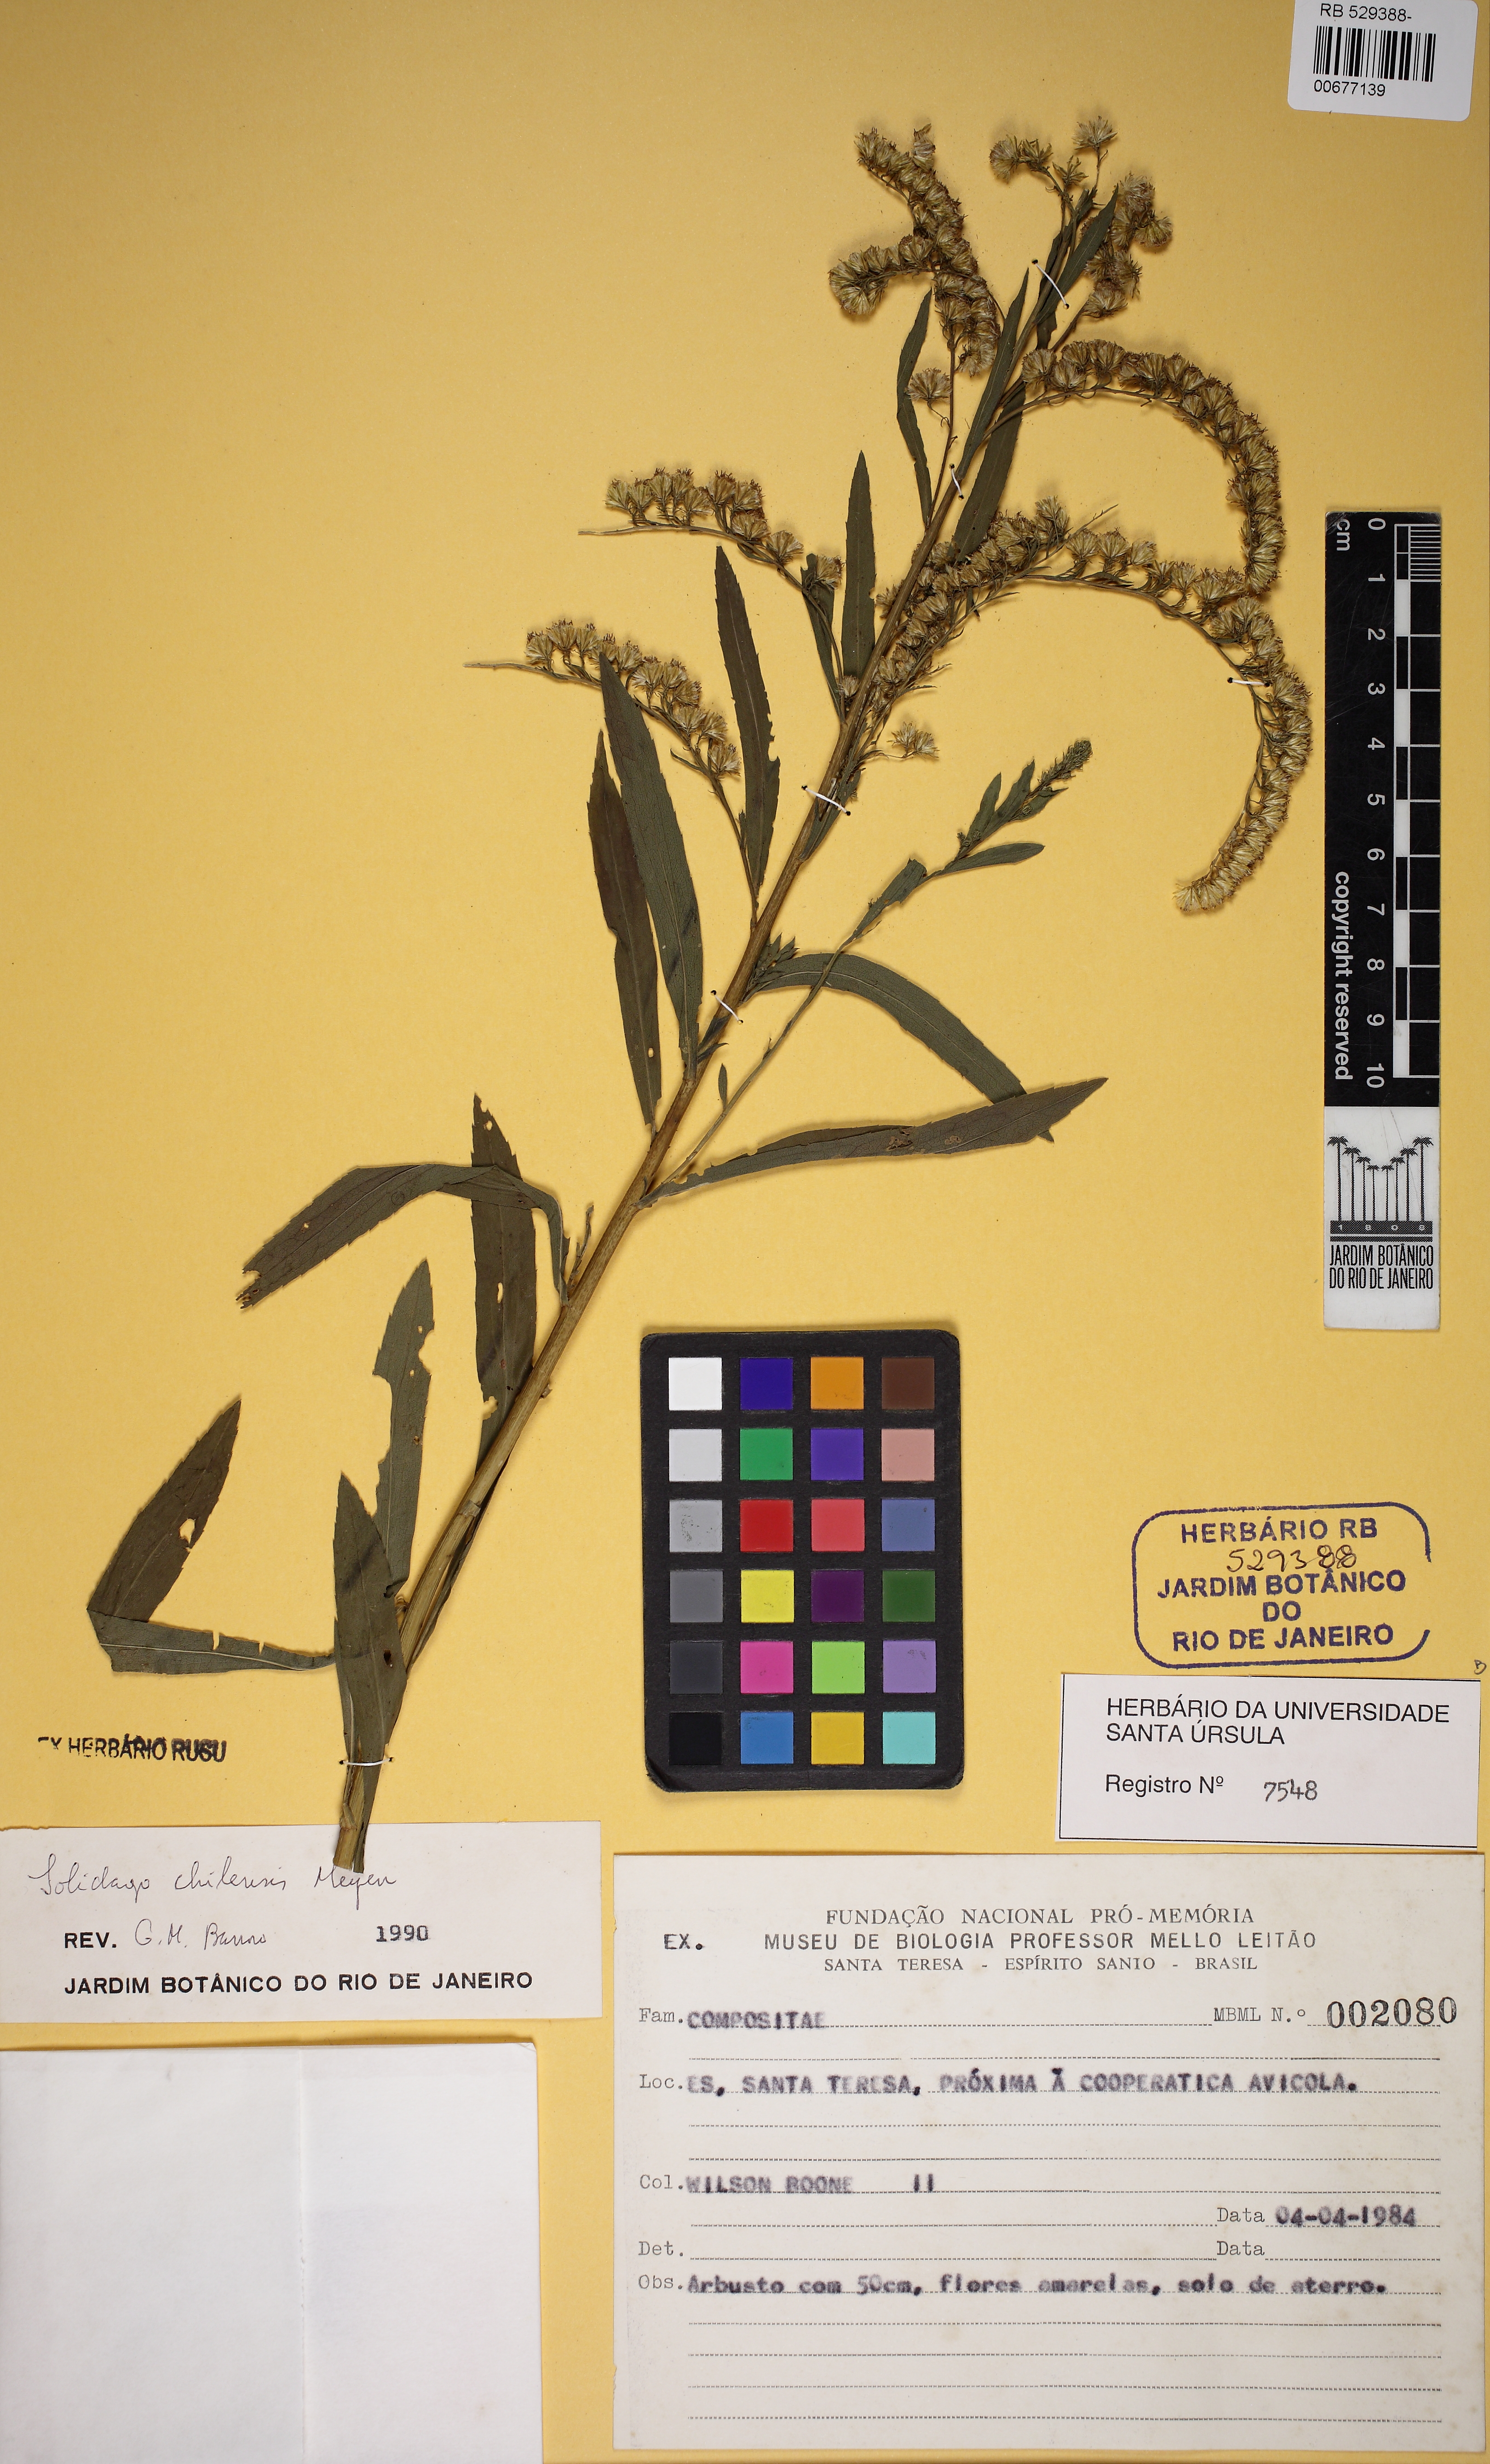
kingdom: Plantae
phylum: Tracheophyta
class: Magnoliopsida
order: Asterales
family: Asteraceae
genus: Solidago
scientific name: Solidago chilensis
